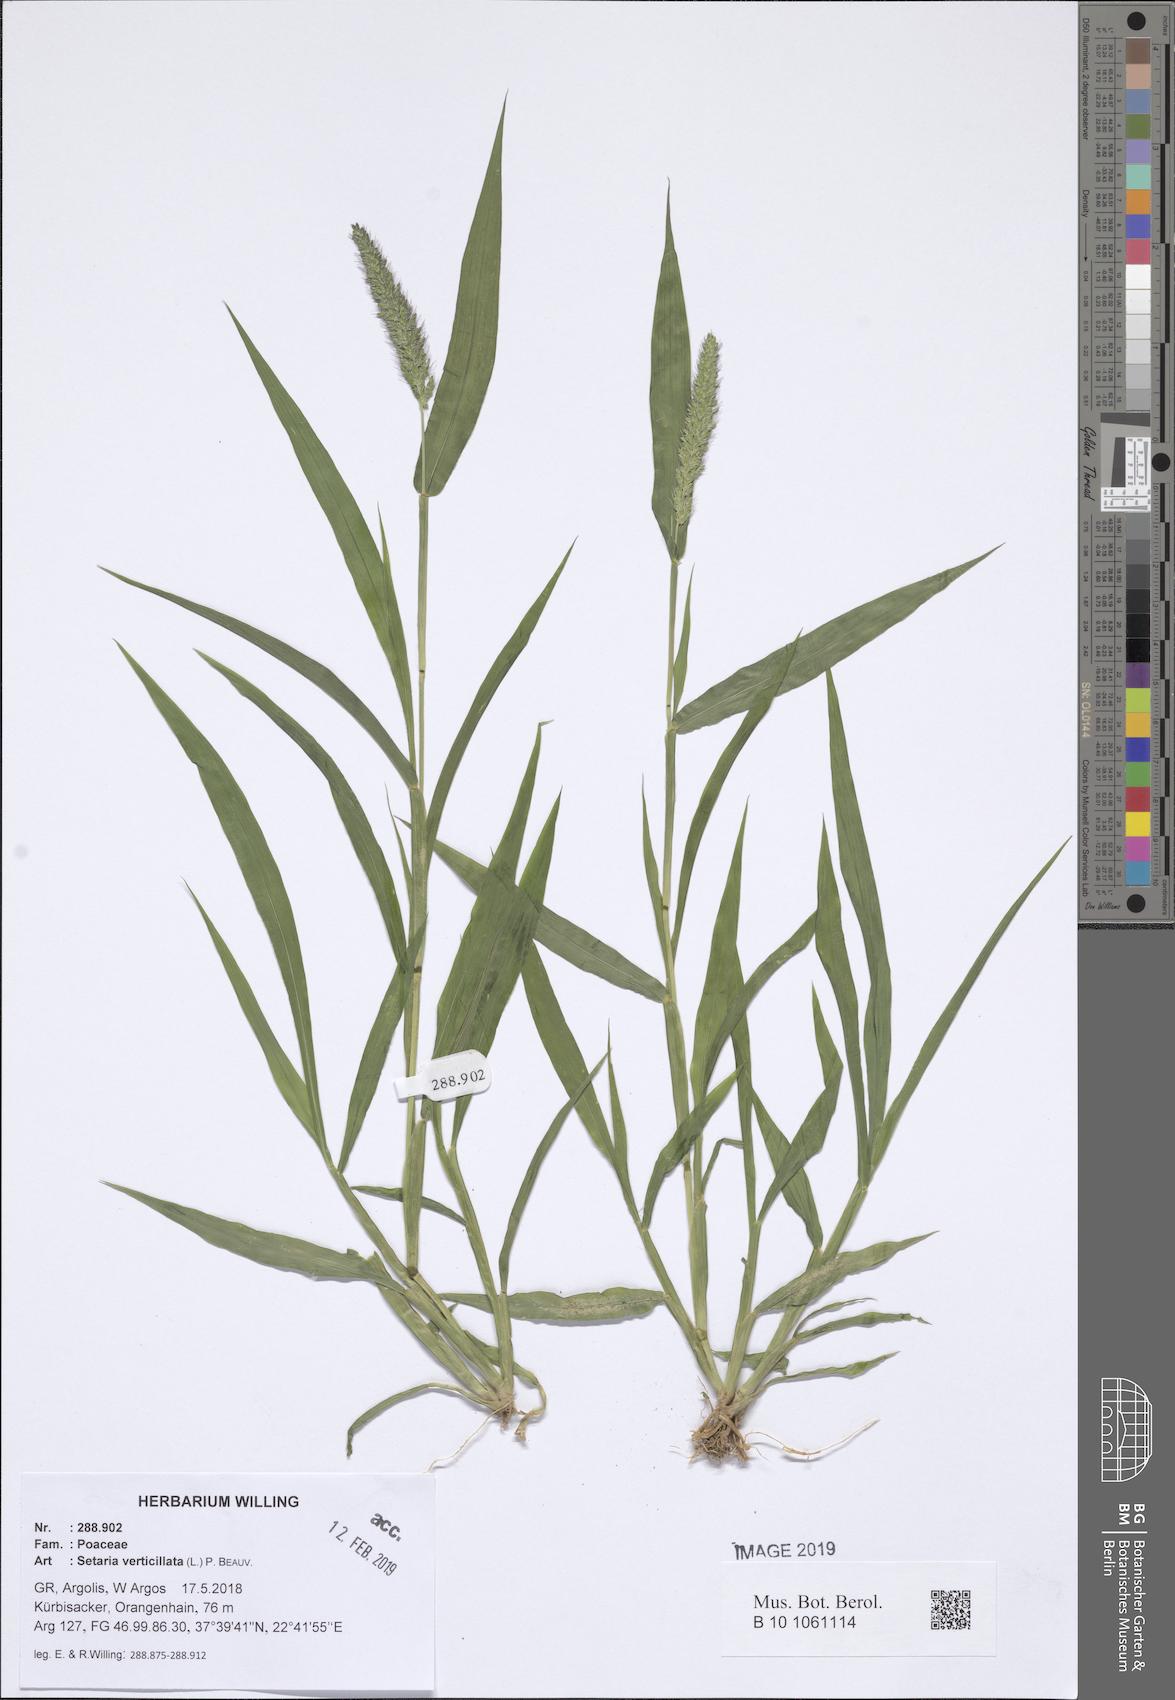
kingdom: Plantae
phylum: Tracheophyta
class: Liliopsida
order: Poales
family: Poaceae
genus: Setaria
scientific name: Setaria verticillata
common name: Hooked bristlegrass
